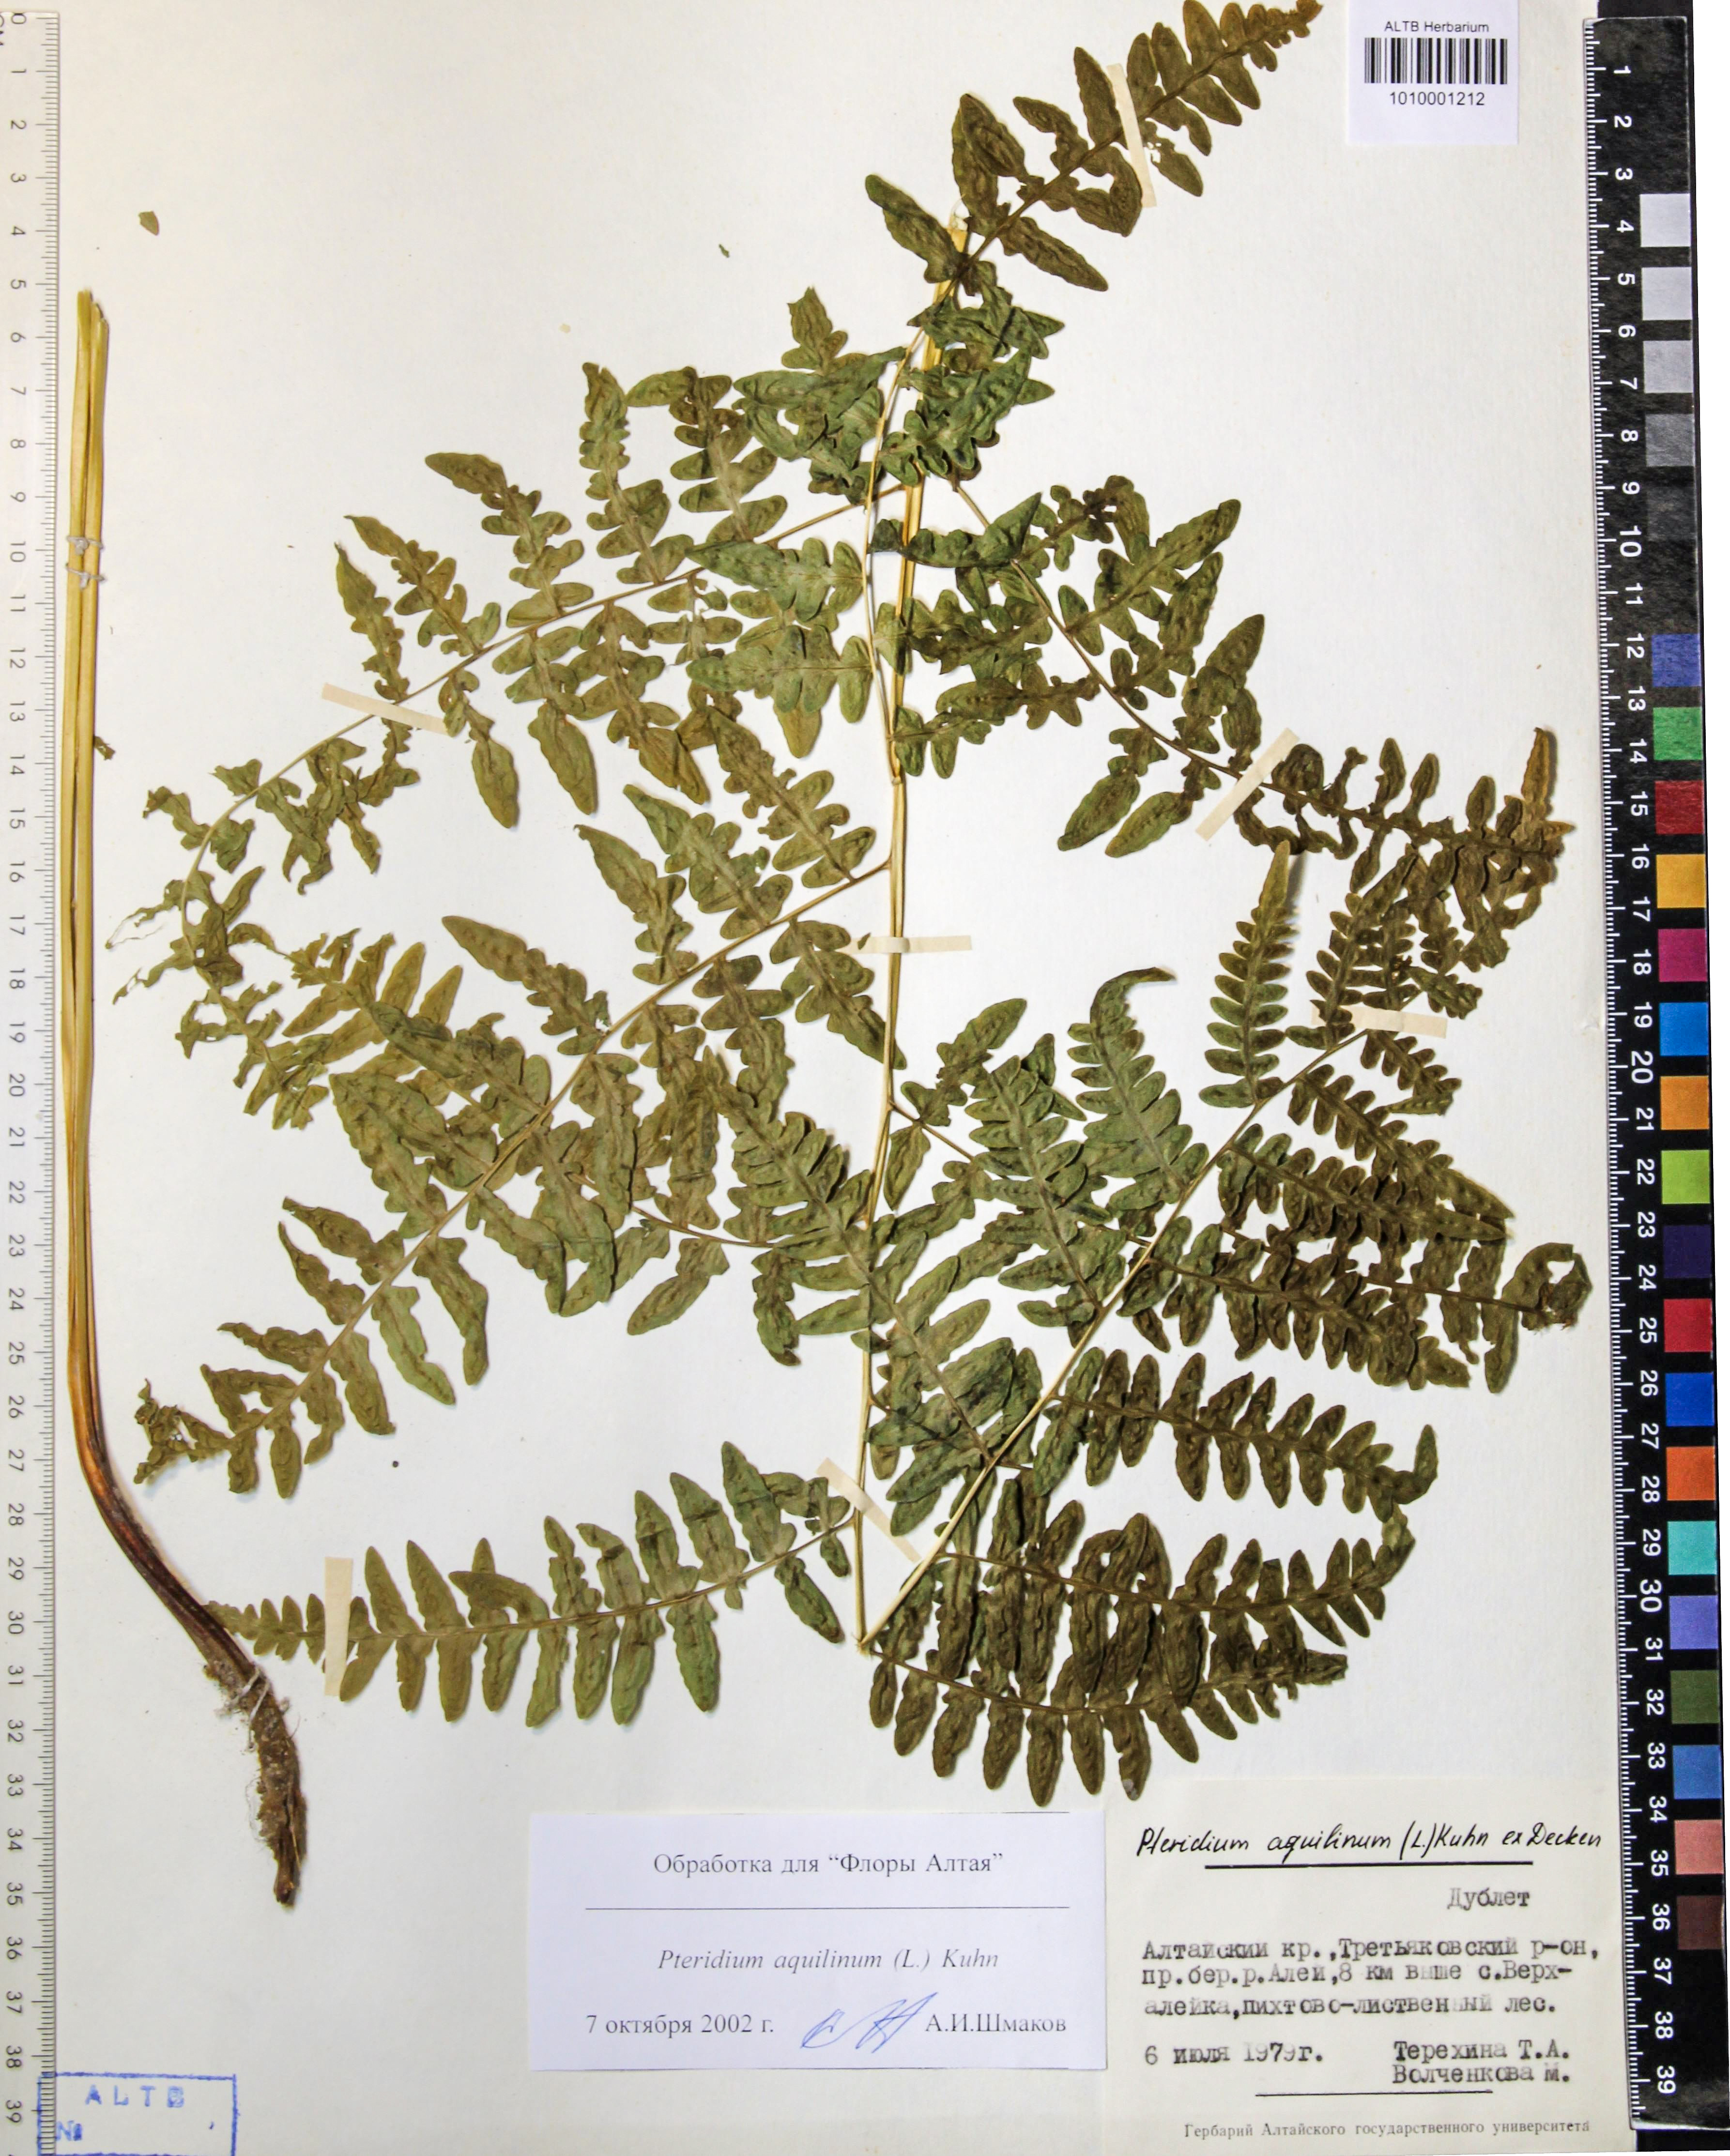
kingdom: Plantae
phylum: Tracheophyta
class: Polypodiopsida
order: Polypodiales
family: Dennstaedtiaceae
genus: Pteridium
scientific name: Pteridium aquilinum
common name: Bracken
